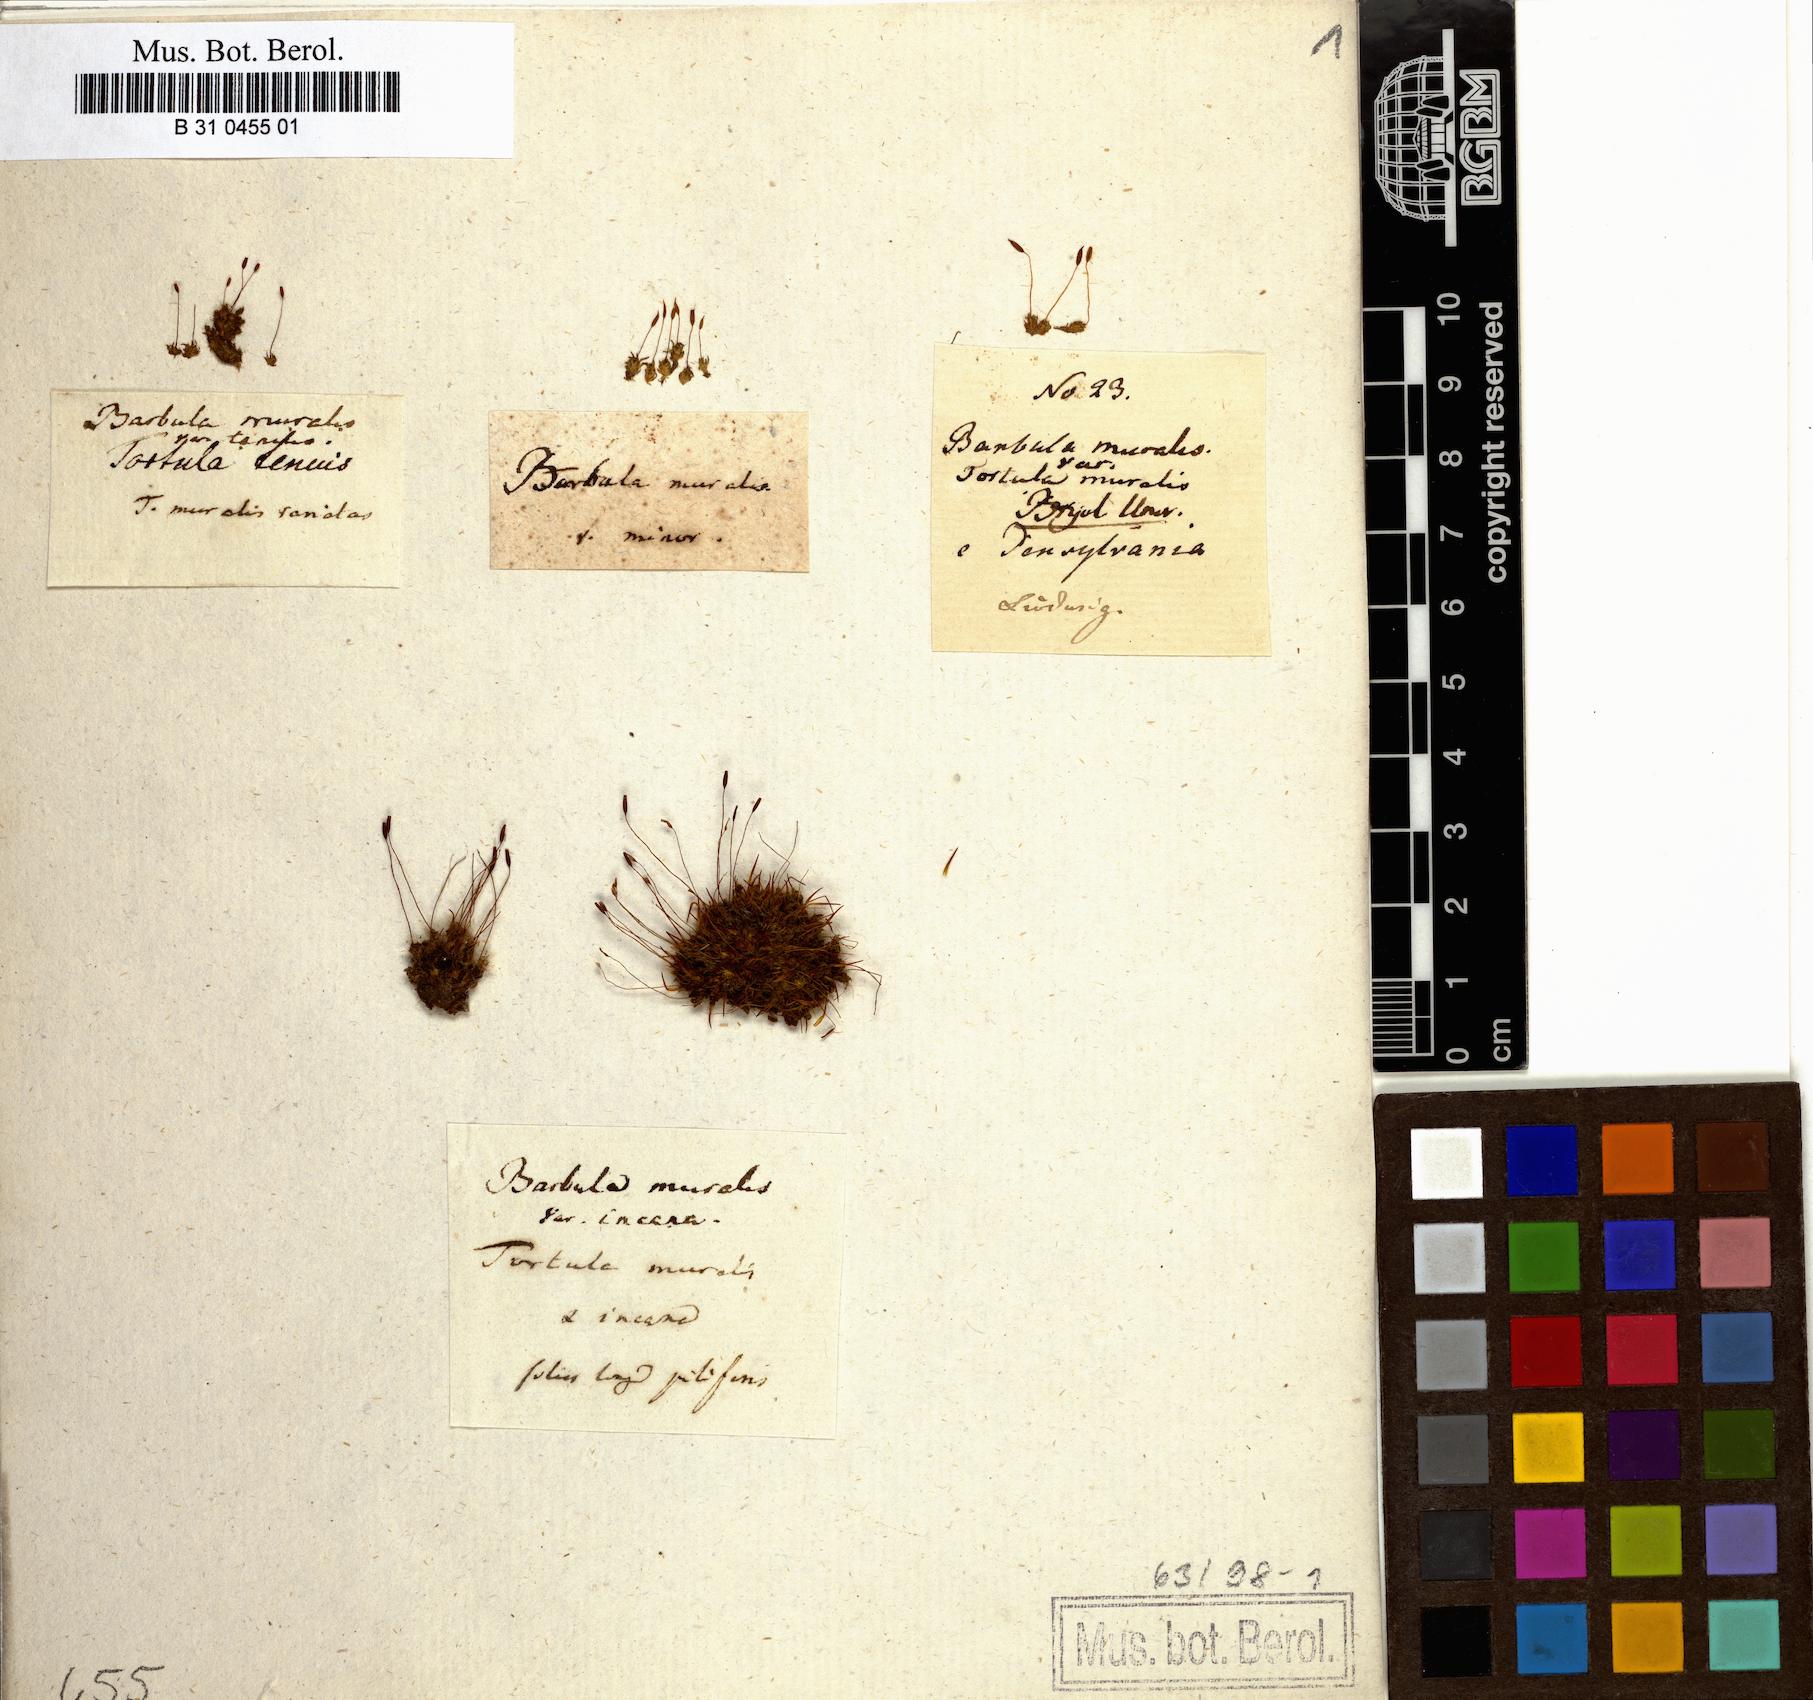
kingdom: Plantae
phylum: Bryophyta
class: Bryopsida
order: Pottiales
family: Pottiaceae
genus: Tortula
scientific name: Tortula muralis
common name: Wall screw-moss
